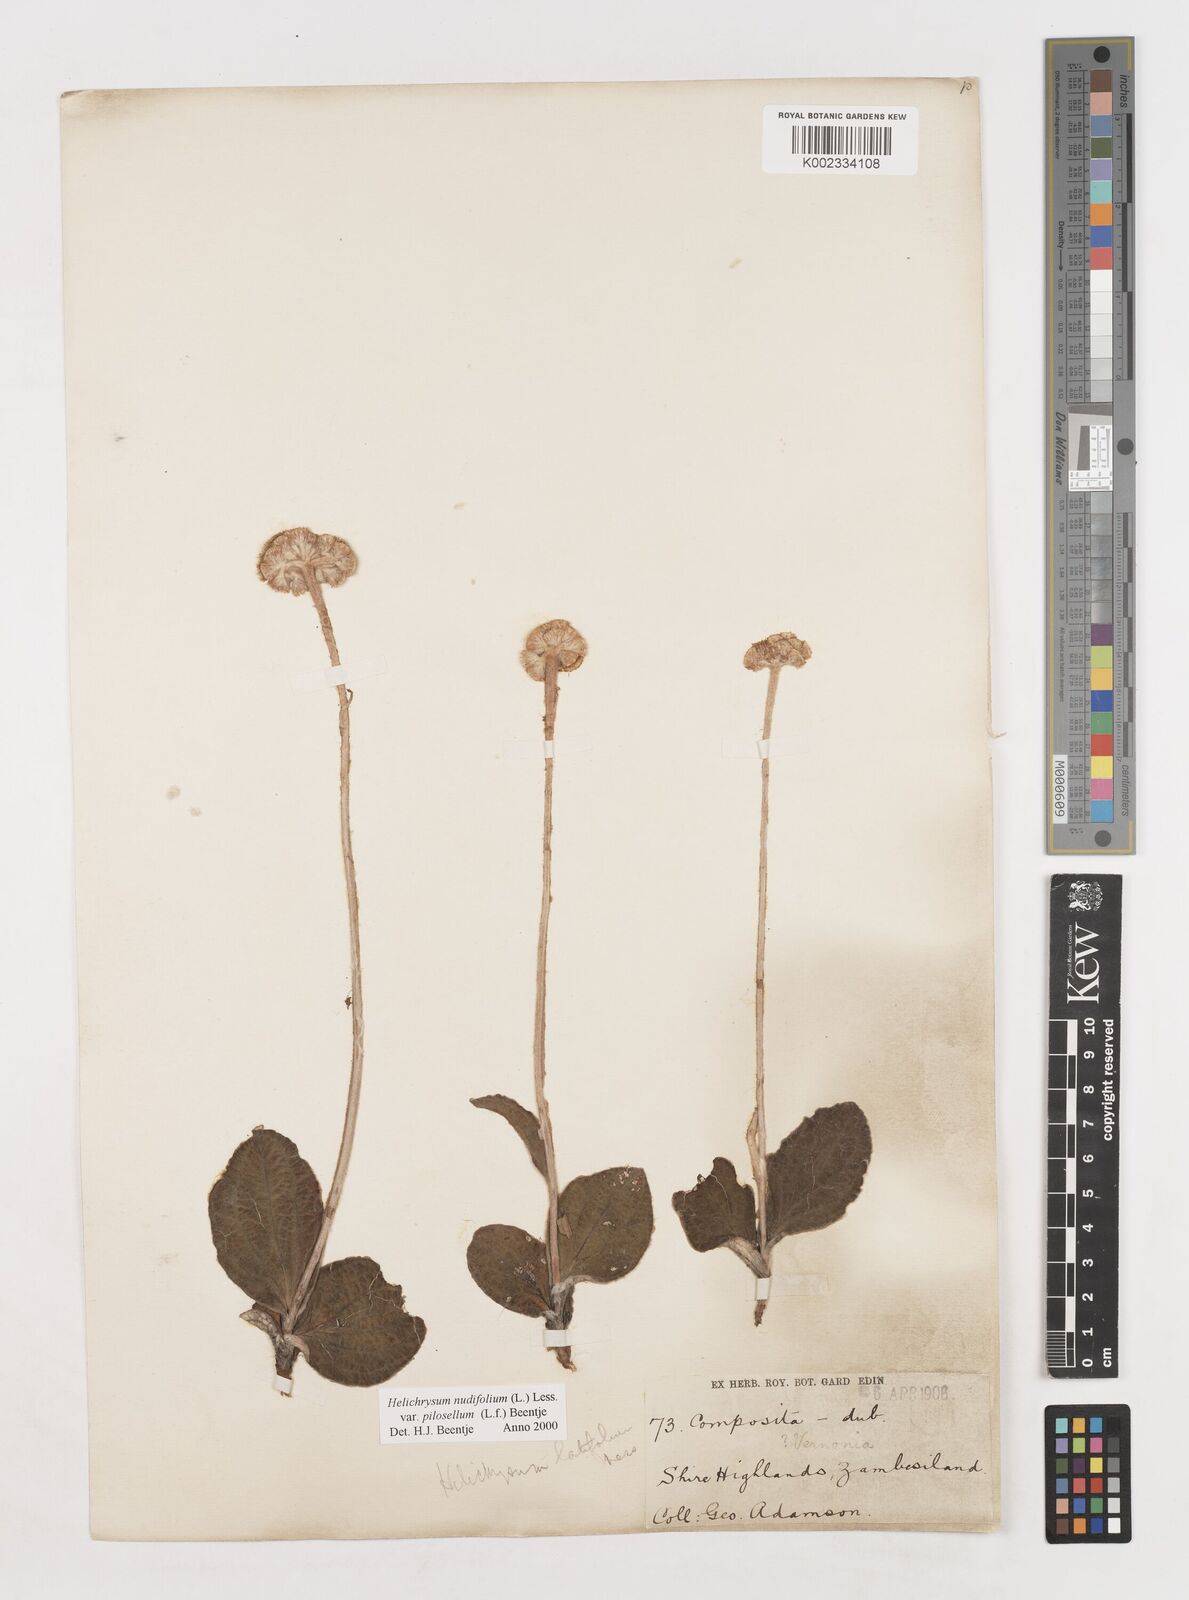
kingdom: Plantae
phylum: Tracheophyta
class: Magnoliopsida
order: Asterales
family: Asteraceae
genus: Helichrysum
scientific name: Helichrysum nudifolium
